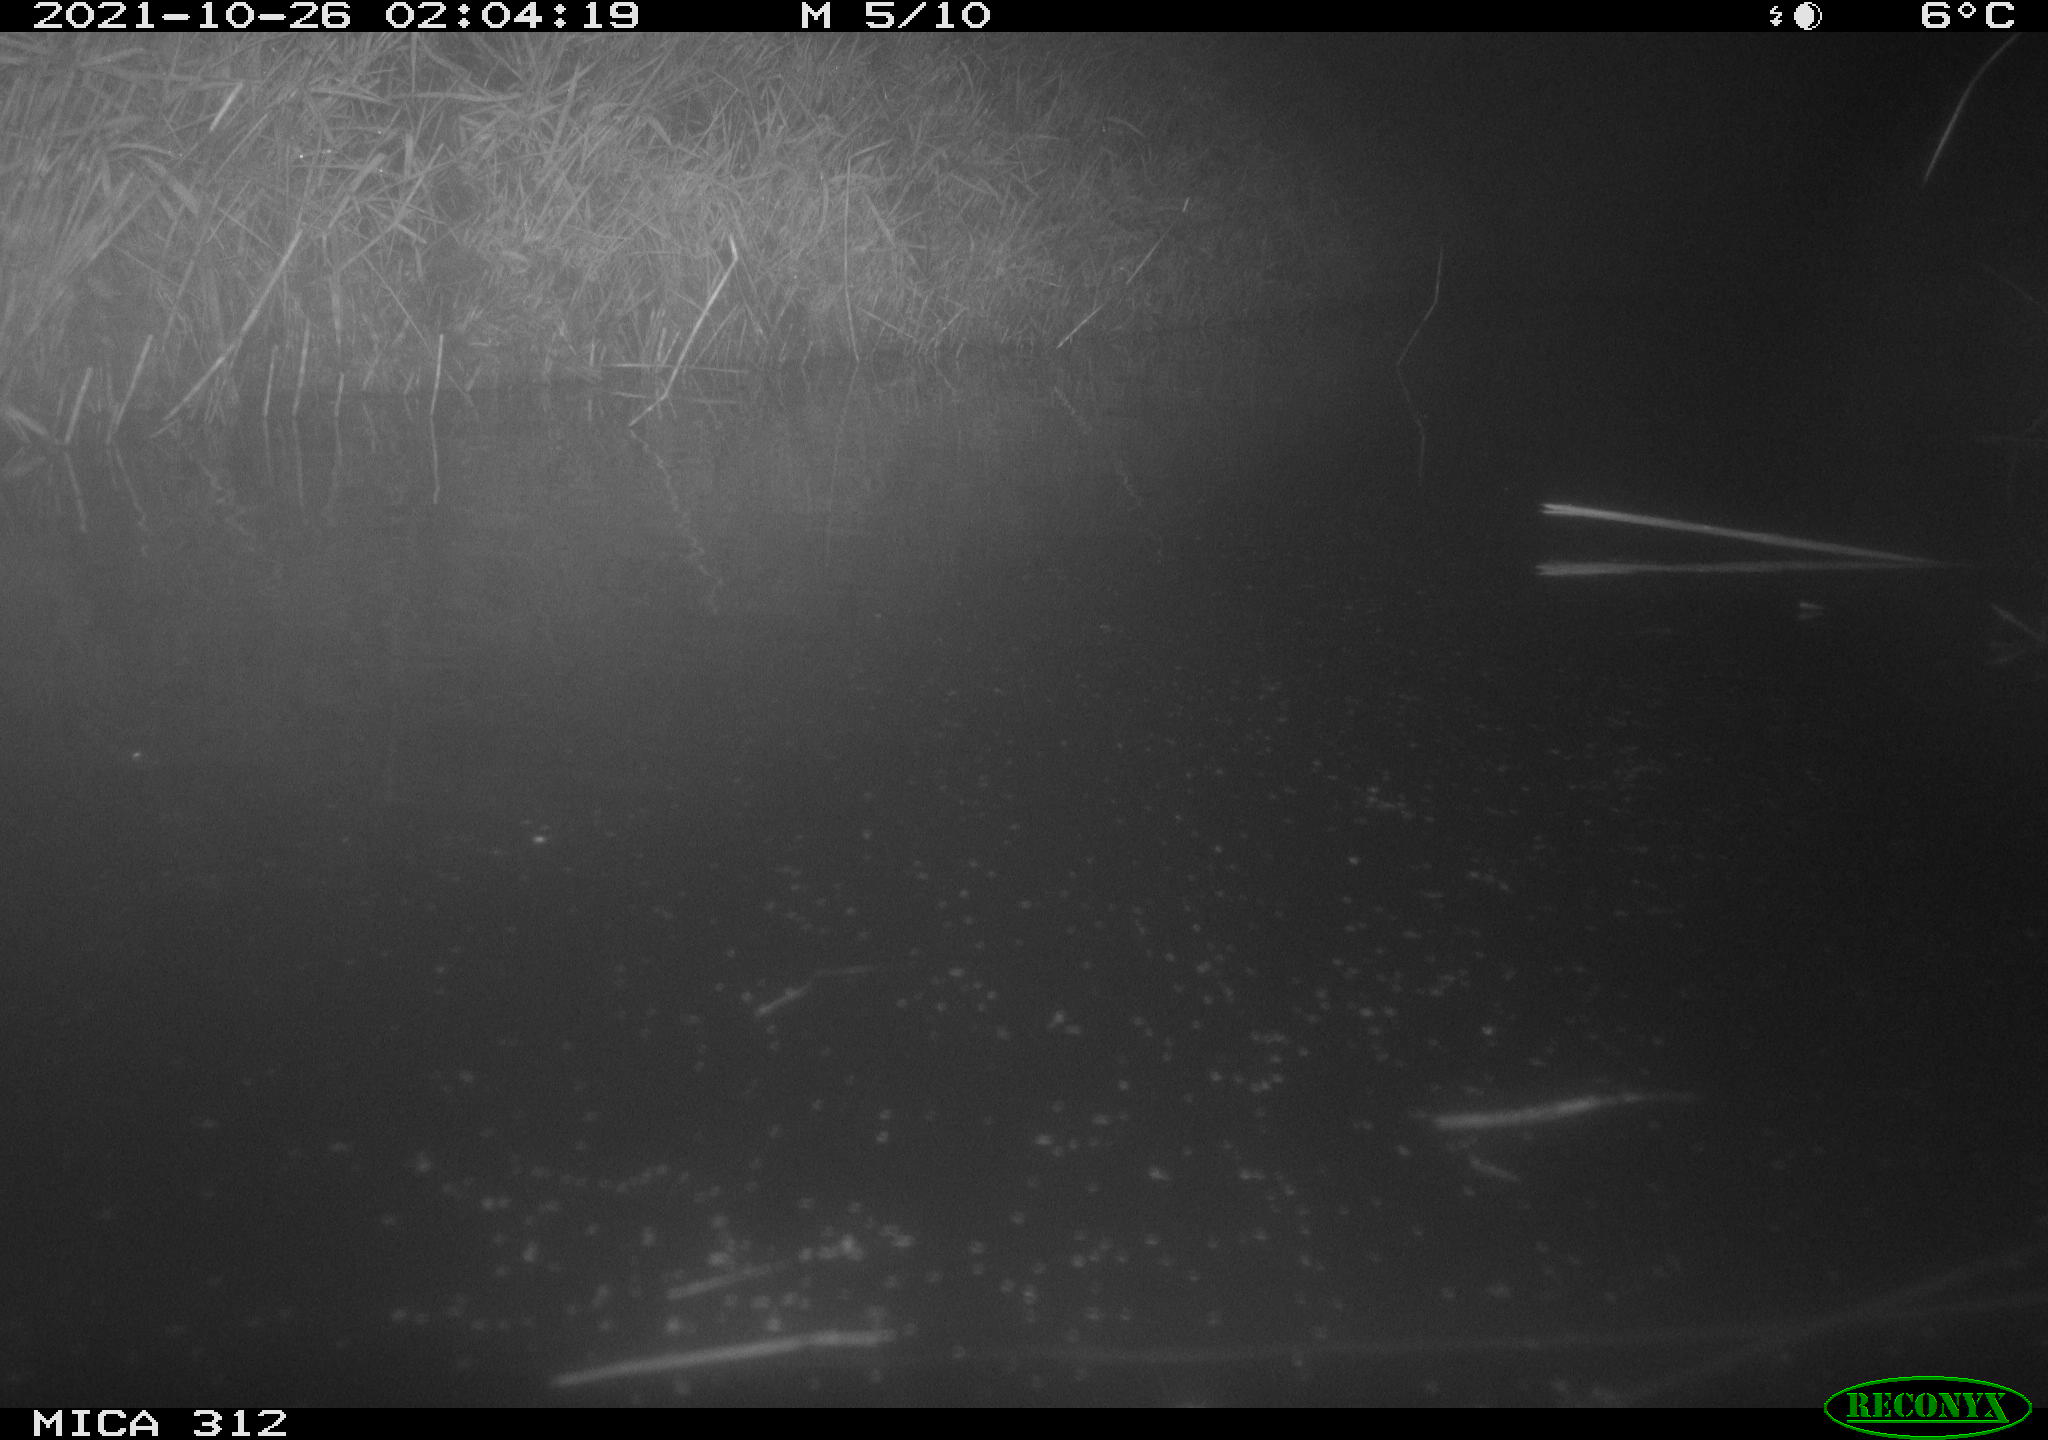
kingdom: Animalia
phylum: Chordata
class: Mammalia
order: Rodentia
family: Muridae
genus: Rattus
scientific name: Rattus norvegicus
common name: Brown rat
